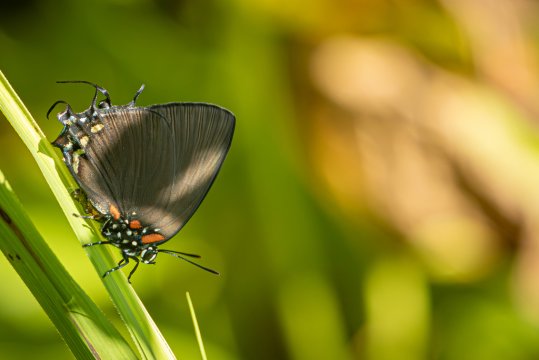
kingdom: Animalia
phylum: Arthropoda
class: Insecta
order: Lepidoptera
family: Lycaenidae
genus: Atlides
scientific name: Atlides halesus
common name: Great Purple Hairstreak
